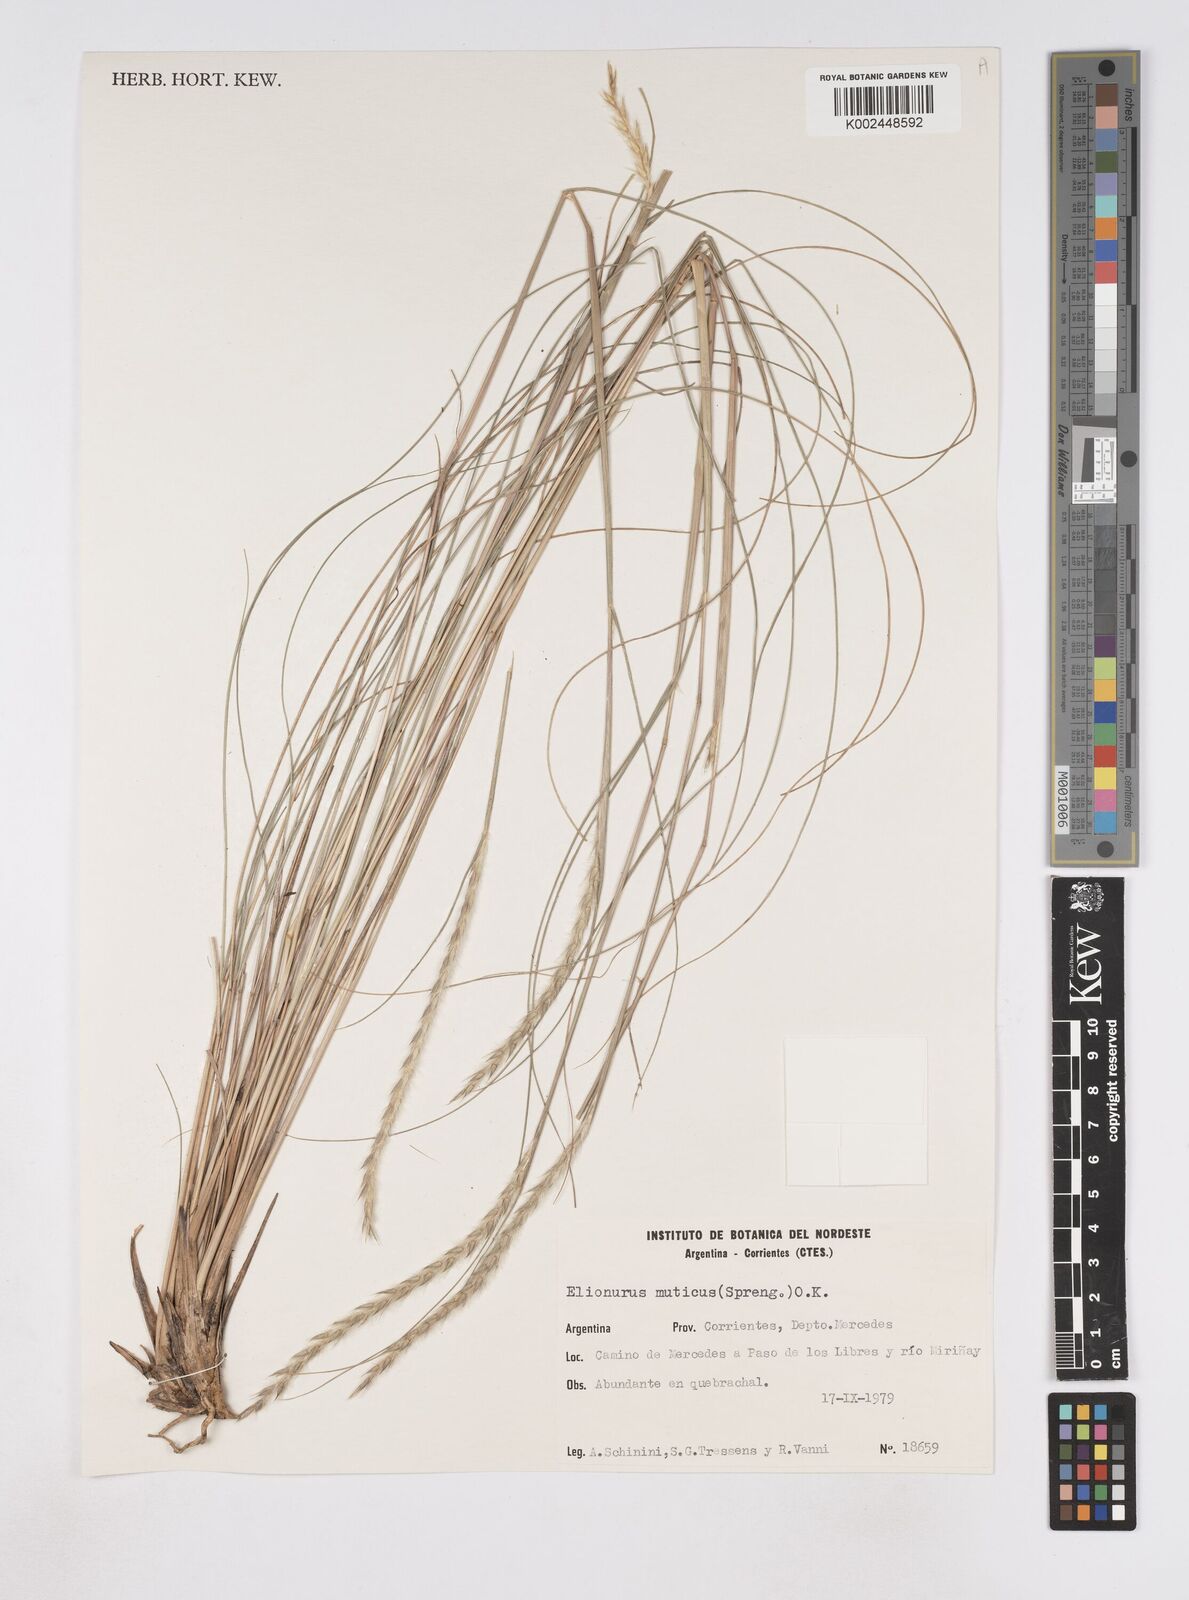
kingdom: Plantae
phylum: Tracheophyta
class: Liliopsida
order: Poales
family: Poaceae
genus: Elionurus
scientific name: Elionurus muticus
